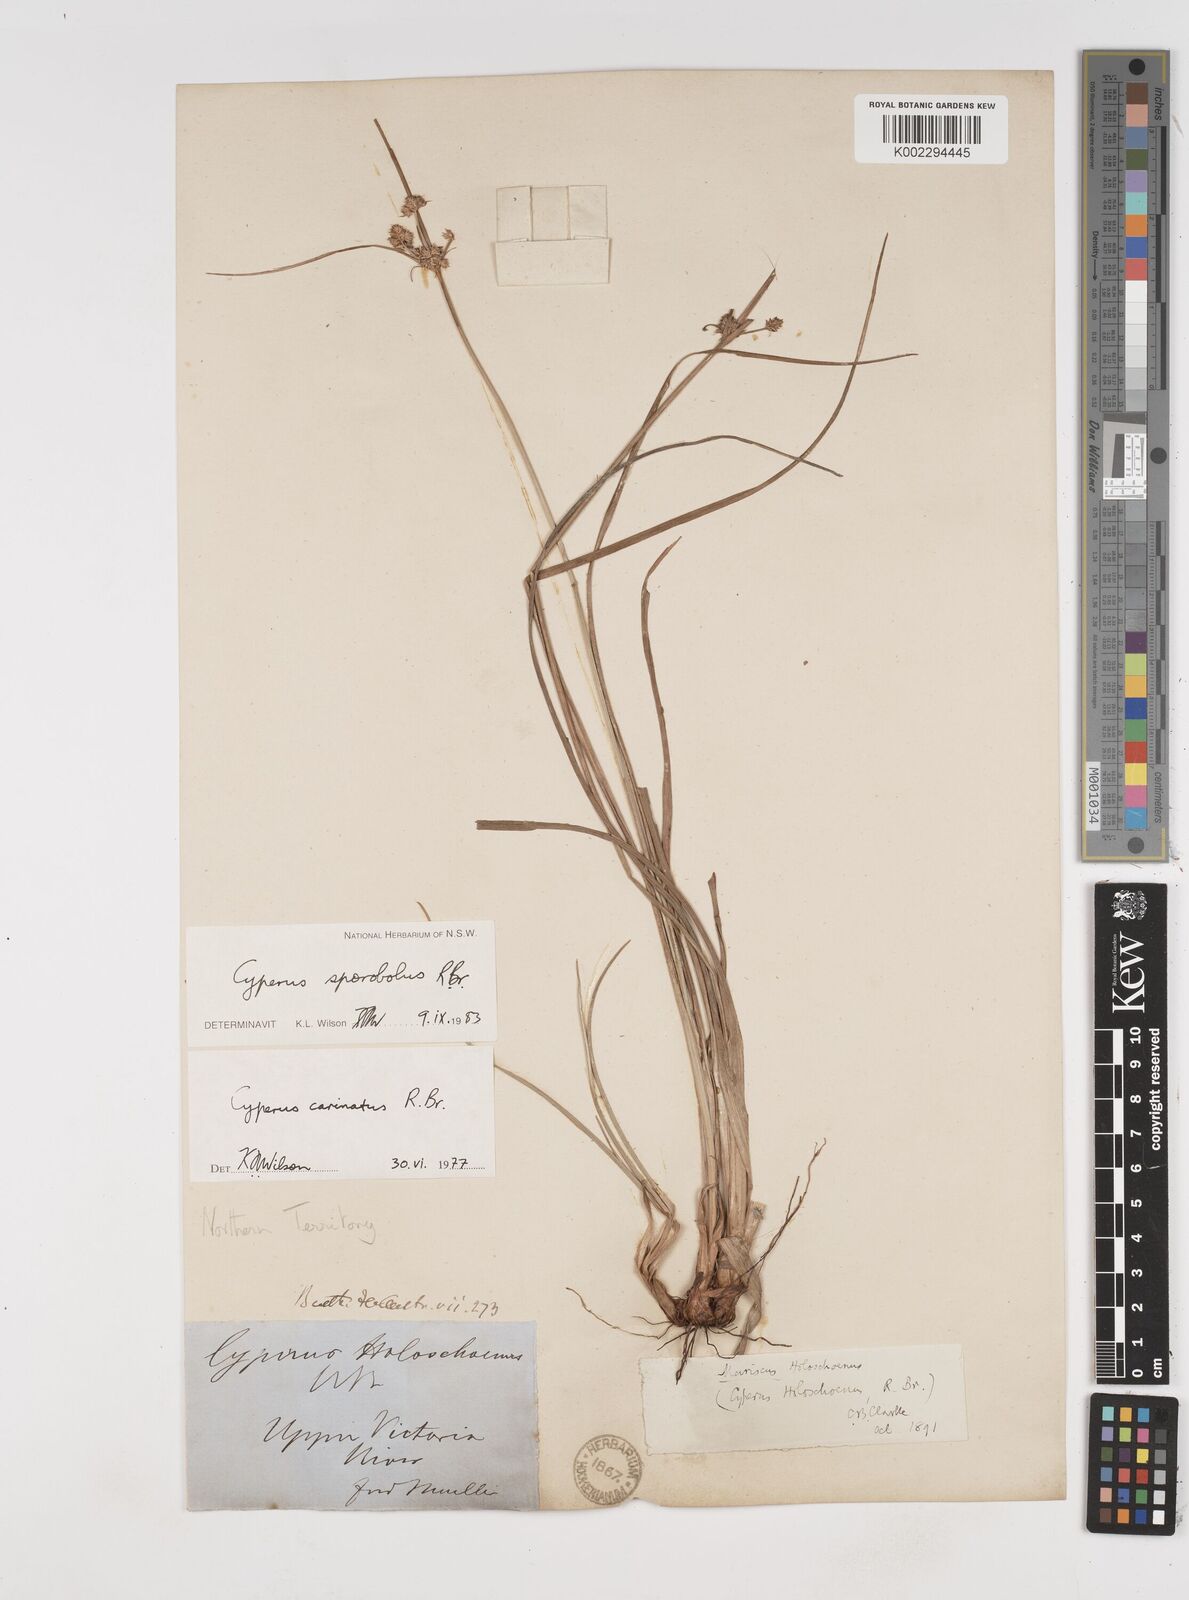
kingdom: Plantae
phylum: Tracheophyta
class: Liliopsida
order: Poales
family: Cyperaceae
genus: Cyperus
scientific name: Cyperus sporobolus
